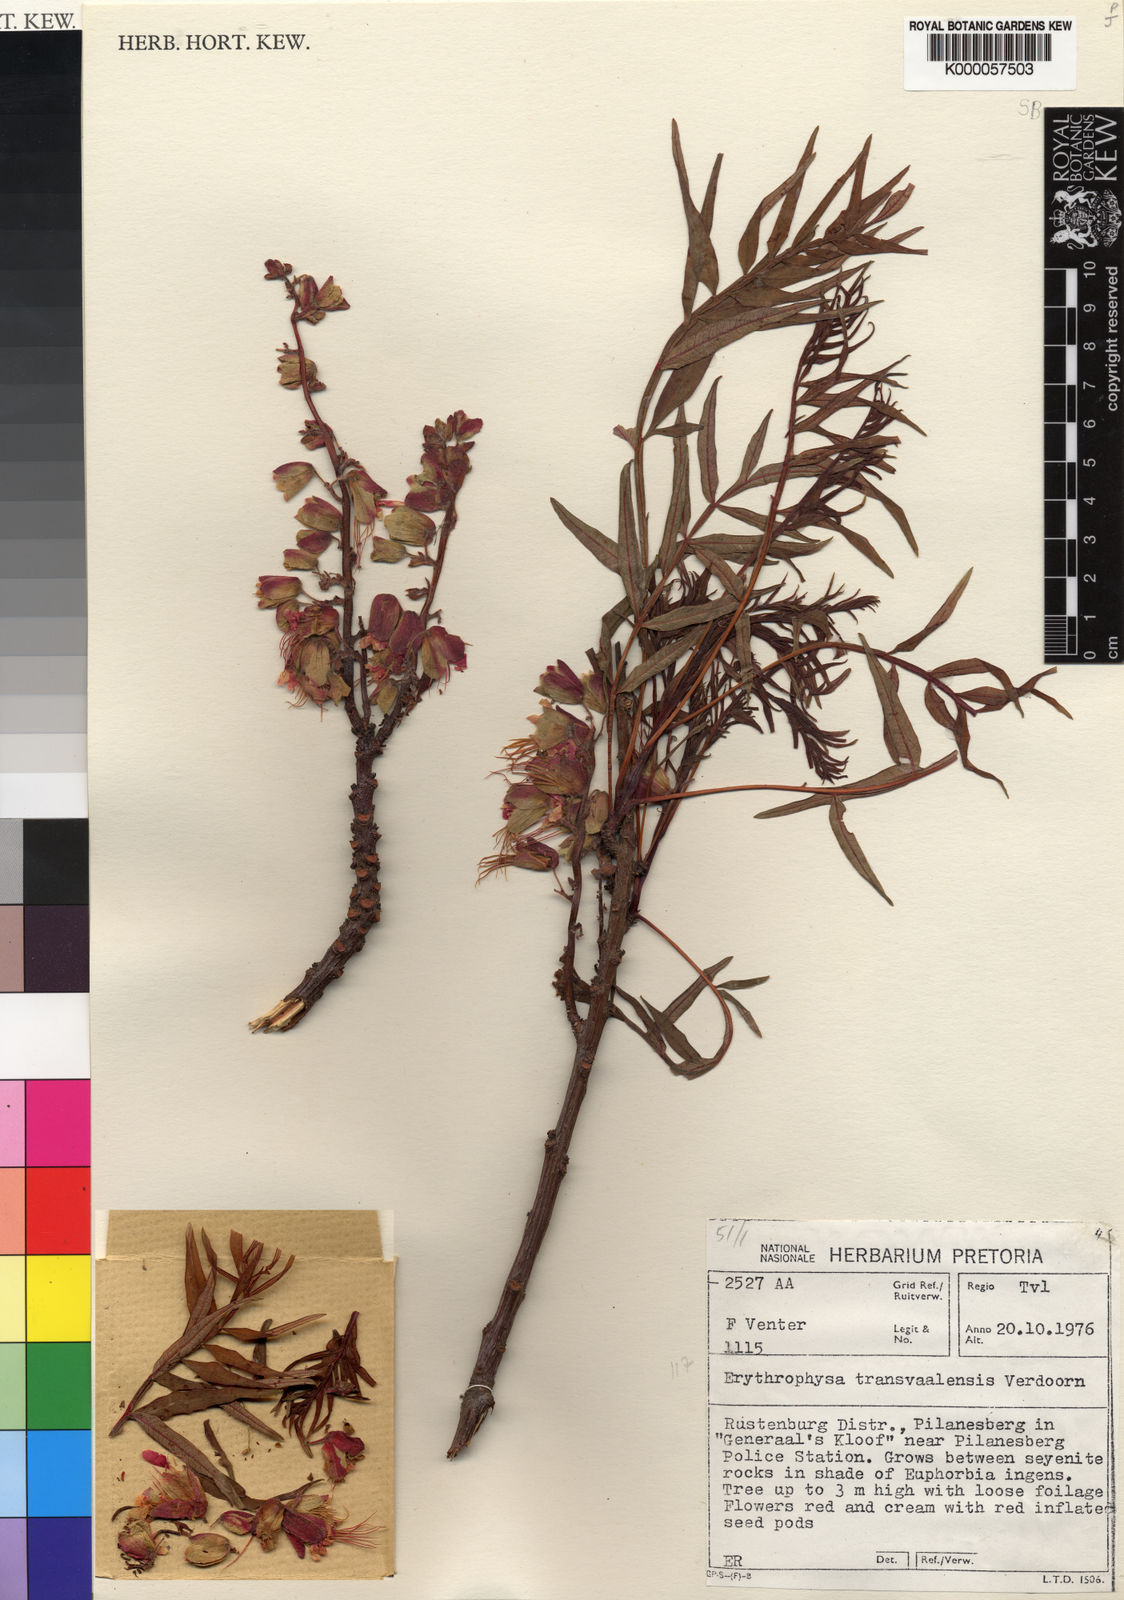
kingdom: Plantae
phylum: Tracheophyta
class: Magnoliopsida
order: Sapindales
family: Sapindaceae
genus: Erythrophysa
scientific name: Erythrophysa transvaalensis
